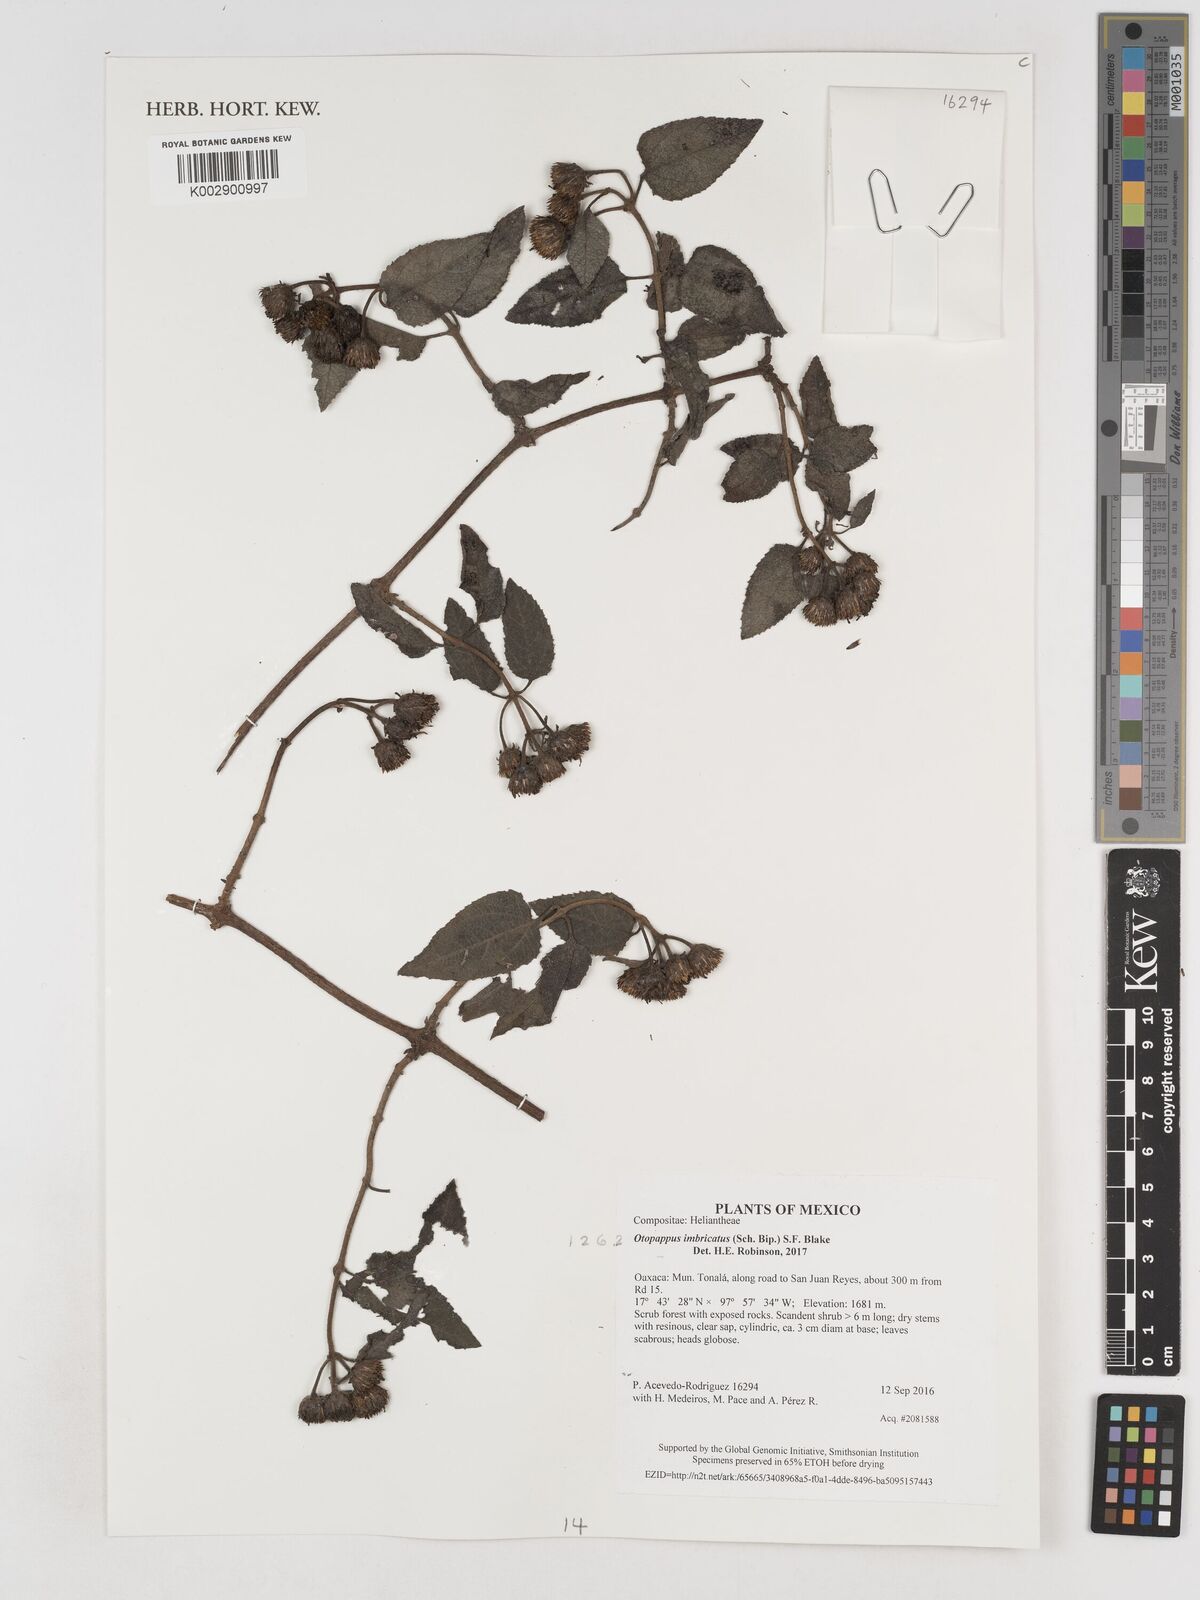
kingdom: Plantae
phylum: Tracheophyta
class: Magnoliopsida
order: Asterales
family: Asteraceae
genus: Otopappus
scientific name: Otopappus imbricatus
